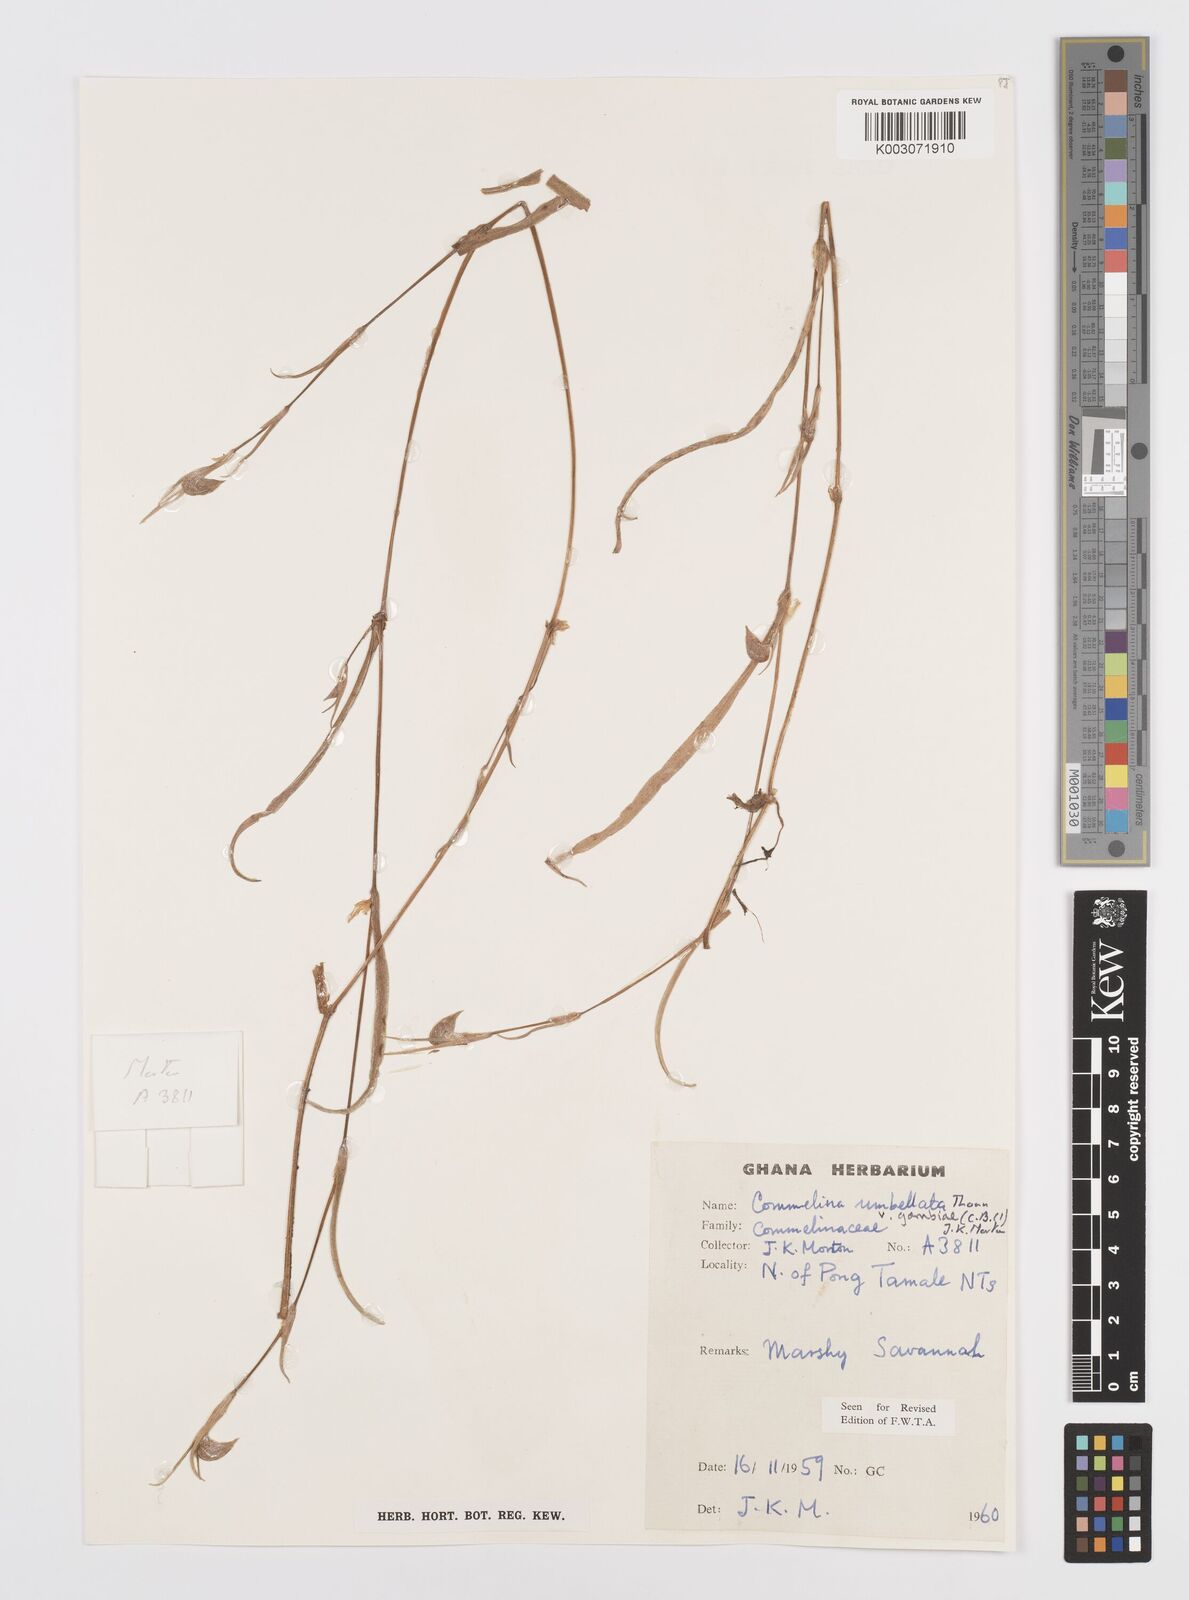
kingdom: Plantae
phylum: Tracheophyta
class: Liliopsida
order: Commelinales
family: Commelinaceae
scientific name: Commelinaceae
